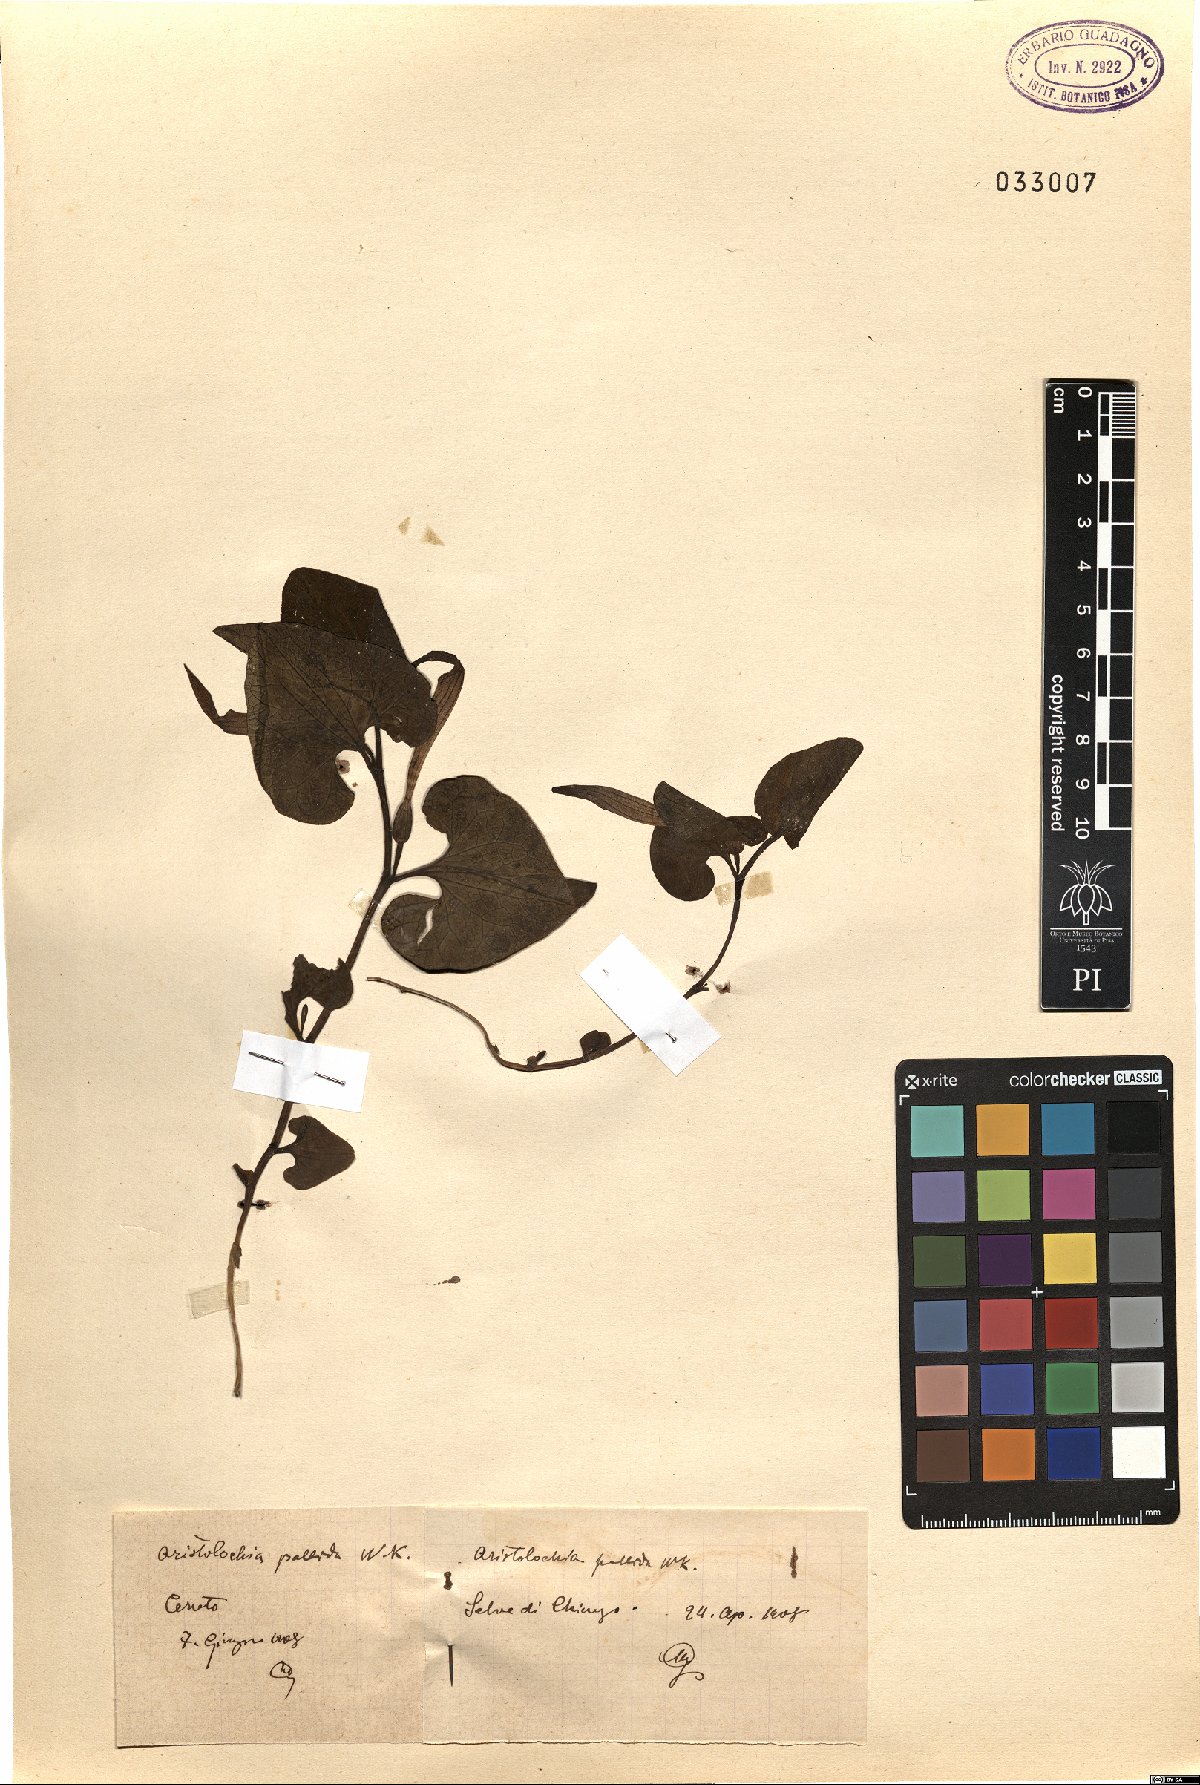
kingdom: Plantae
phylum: Tracheophyta
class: Magnoliopsida
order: Piperales
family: Aristolochiaceae
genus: Aristolochia
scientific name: Aristolochia pallida
